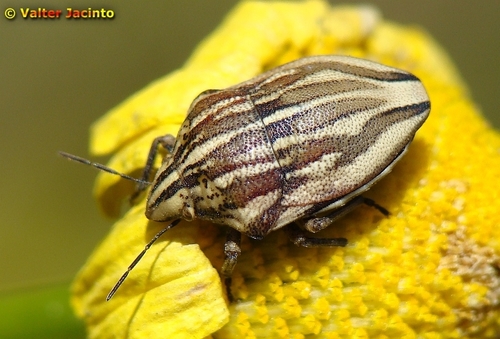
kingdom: Animalia
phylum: Arthropoda
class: Insecta
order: Hemiptera
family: Scutelleridae
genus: Odontotarsus
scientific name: Odontotarsus grammicus
